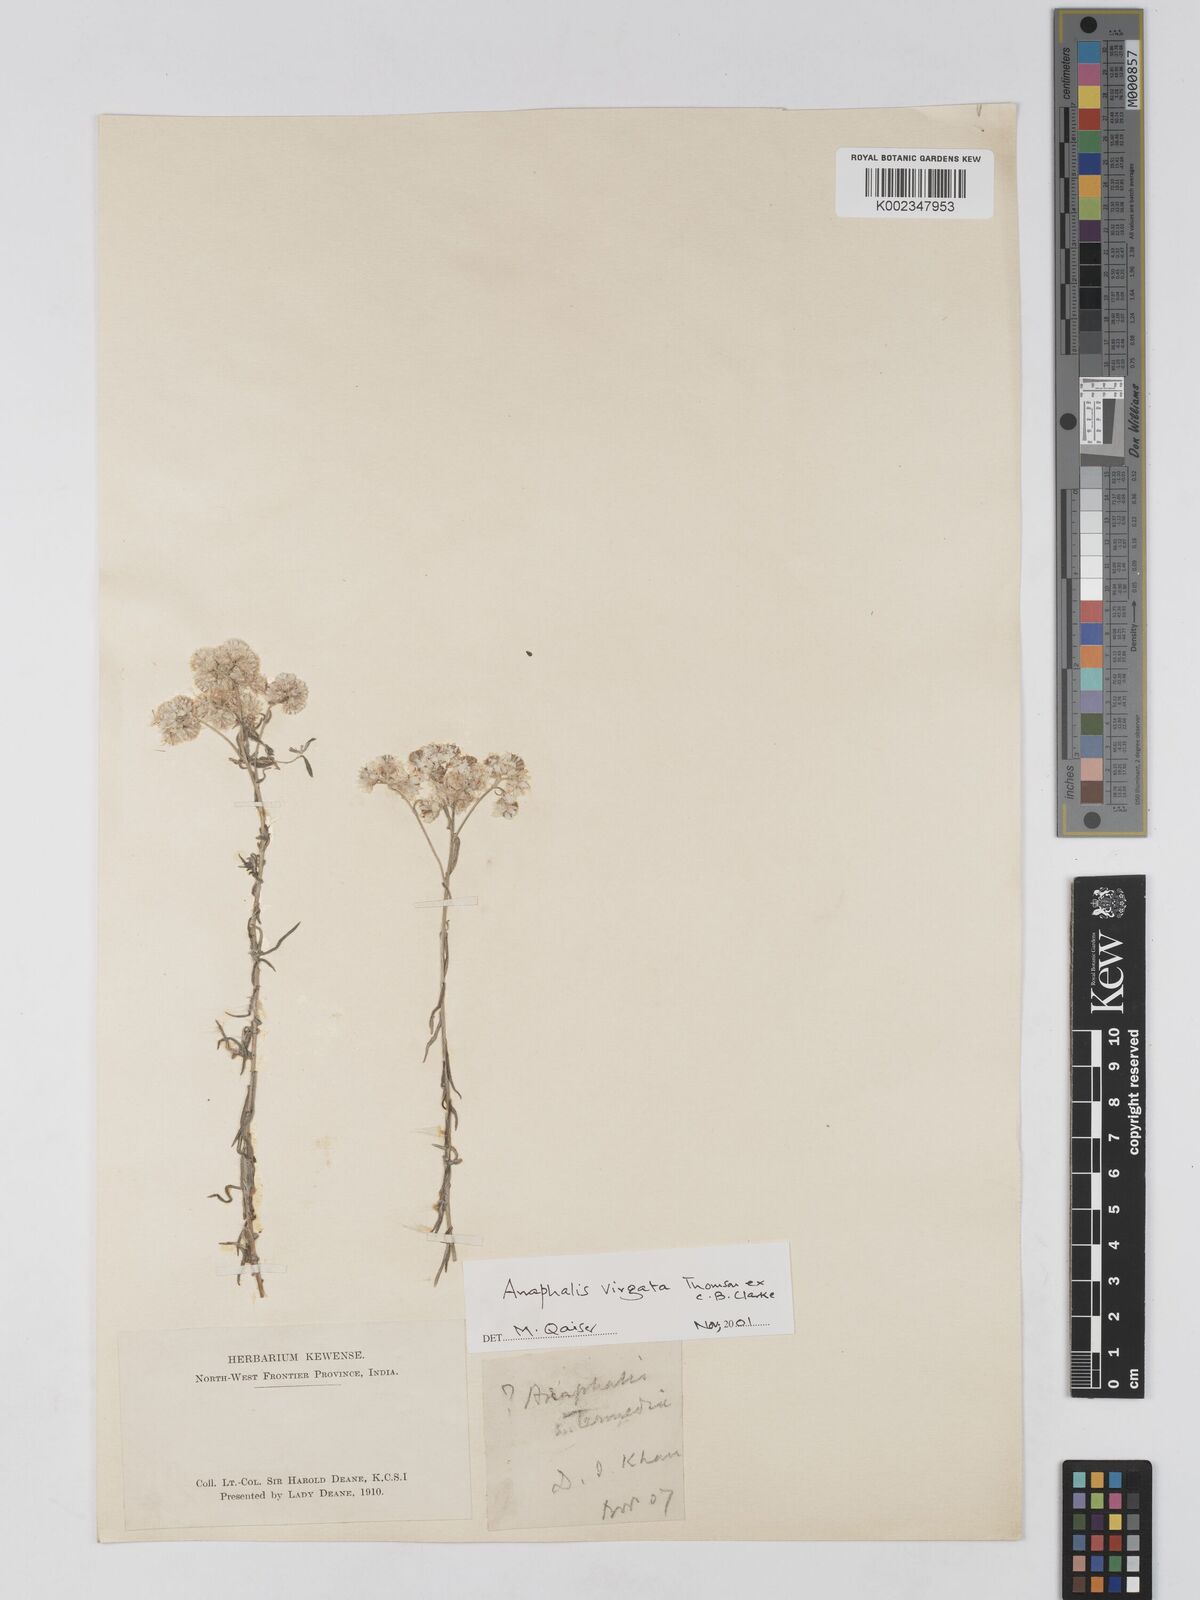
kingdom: Plantae
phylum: Tracheophyta
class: Magnoliopsida
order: Asterales
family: Asteraceae
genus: Anaphalis
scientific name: Anaphalis
